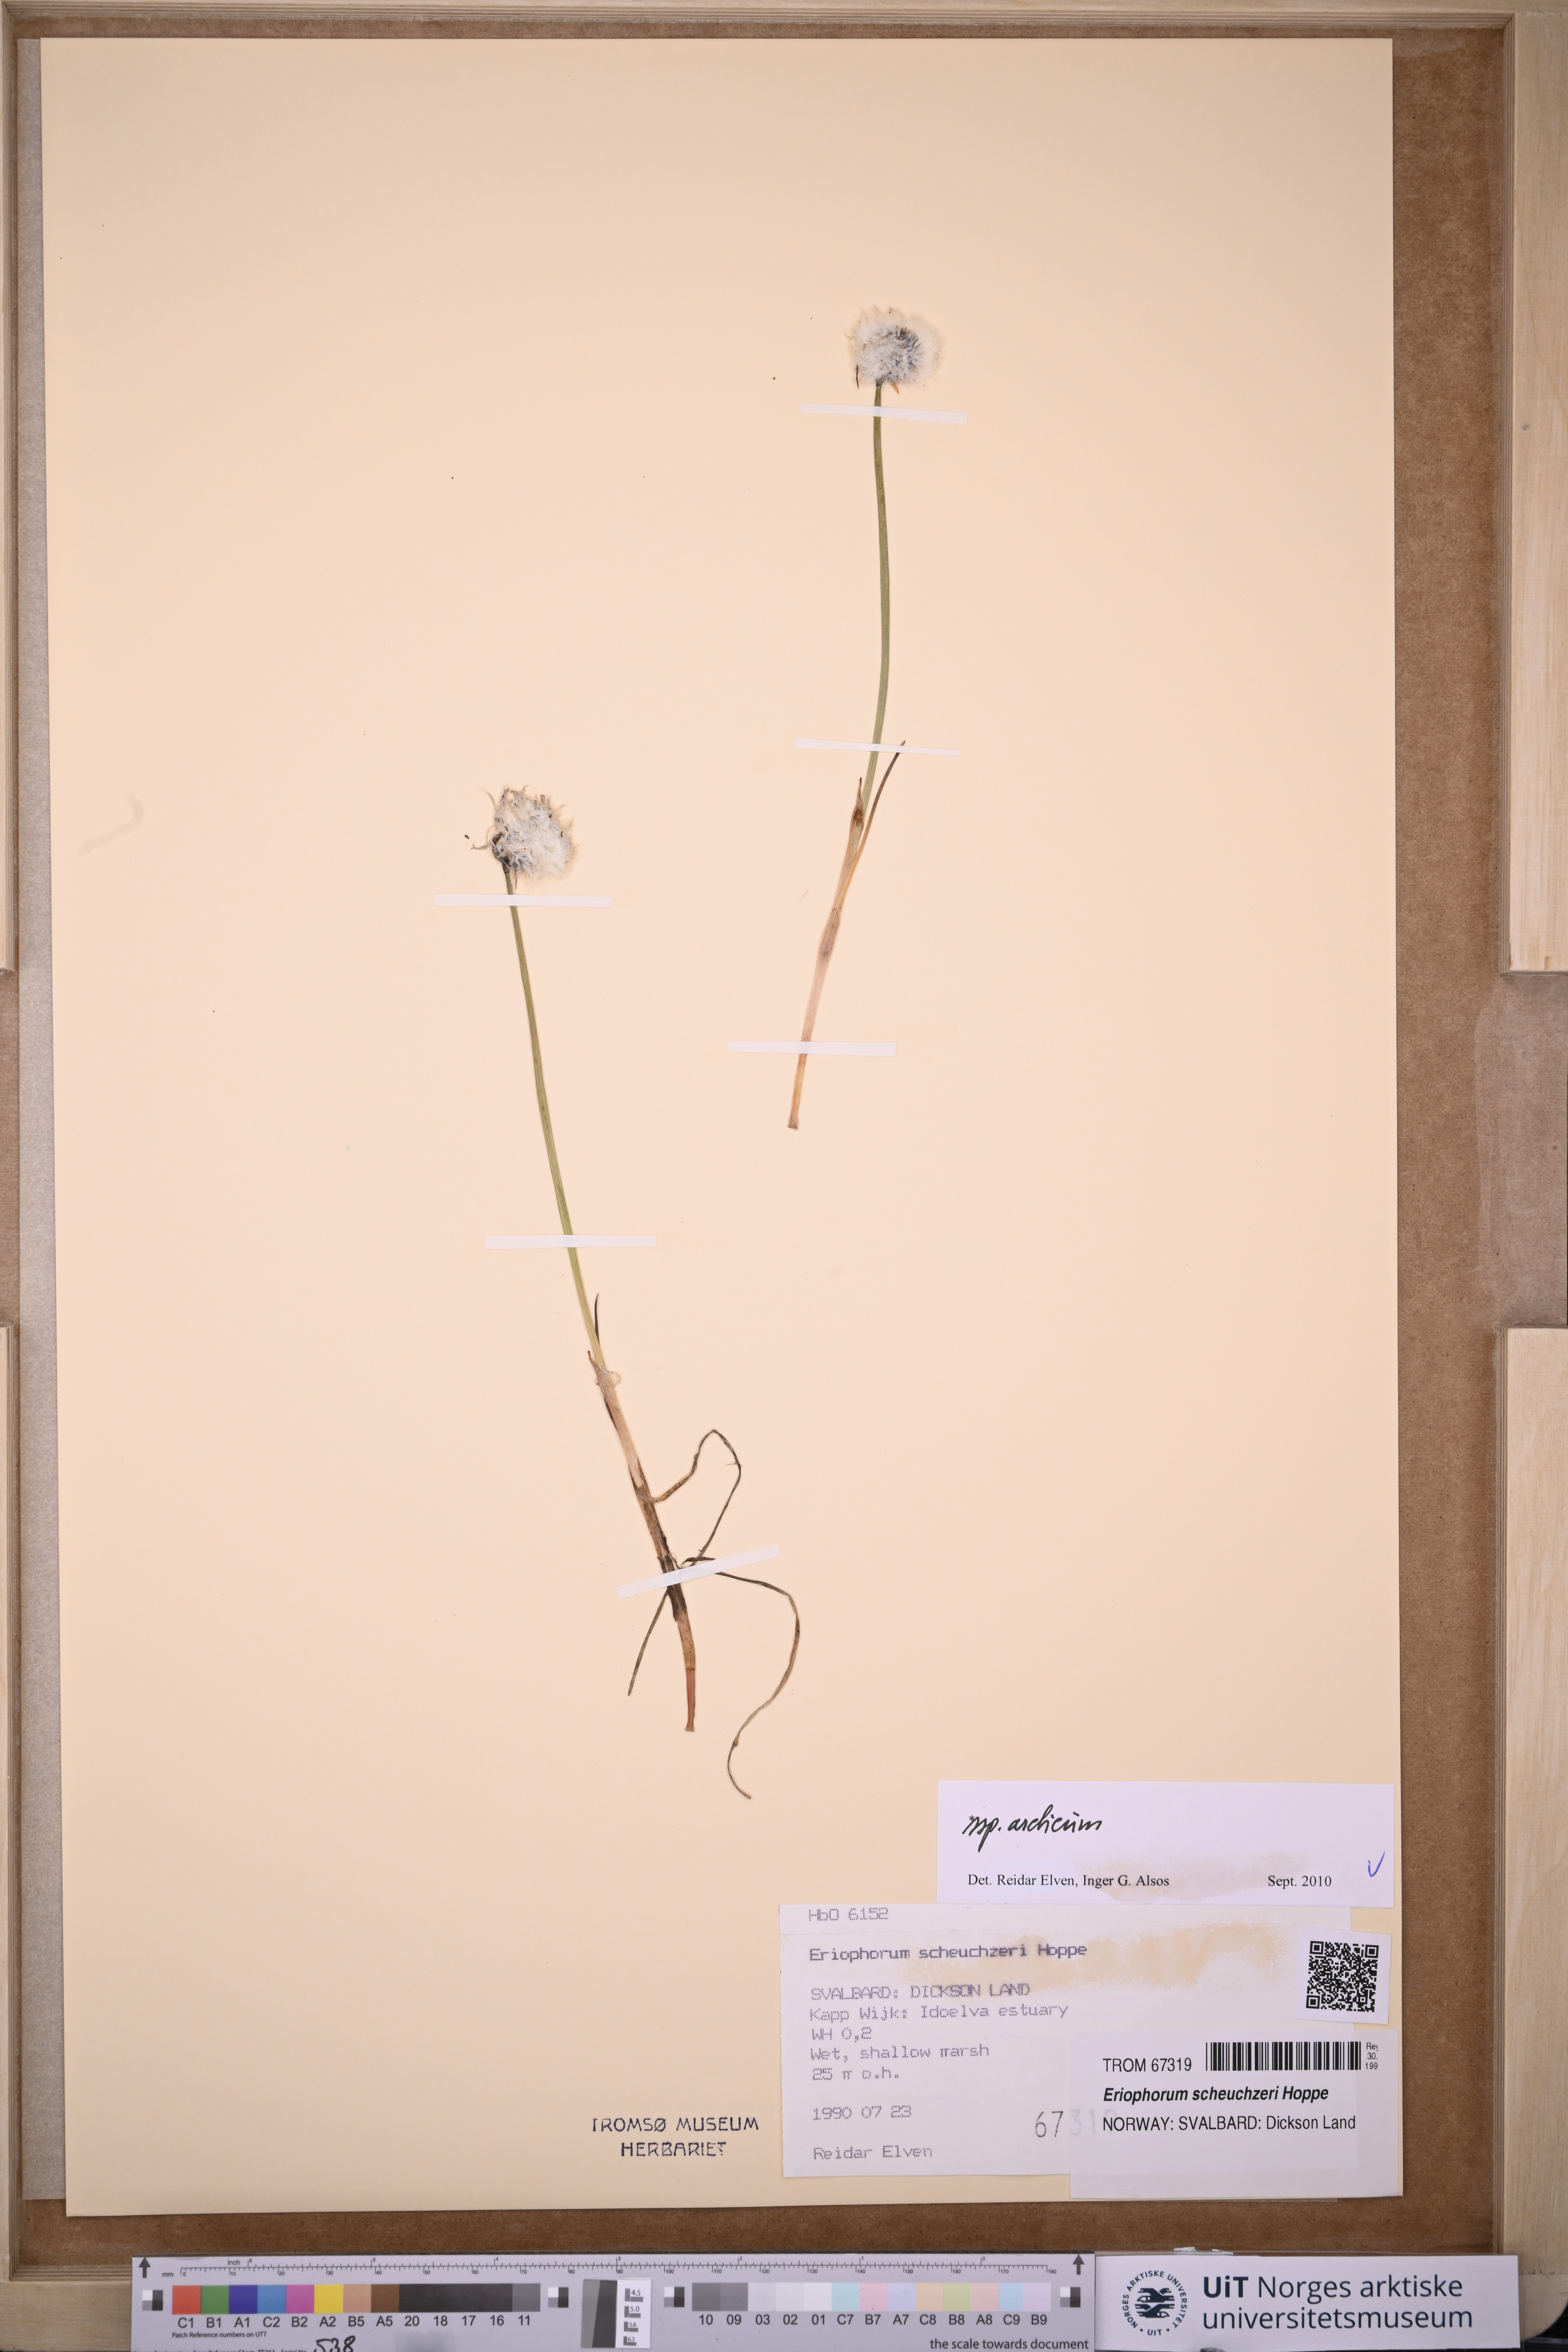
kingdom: Plantae
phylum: Tracheophyta
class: Liliopsida
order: Poales
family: Cyperaceae
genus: Eriophorum
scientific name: Eriophorum scheuchzeri
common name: Scheuchzer's cottongrass
